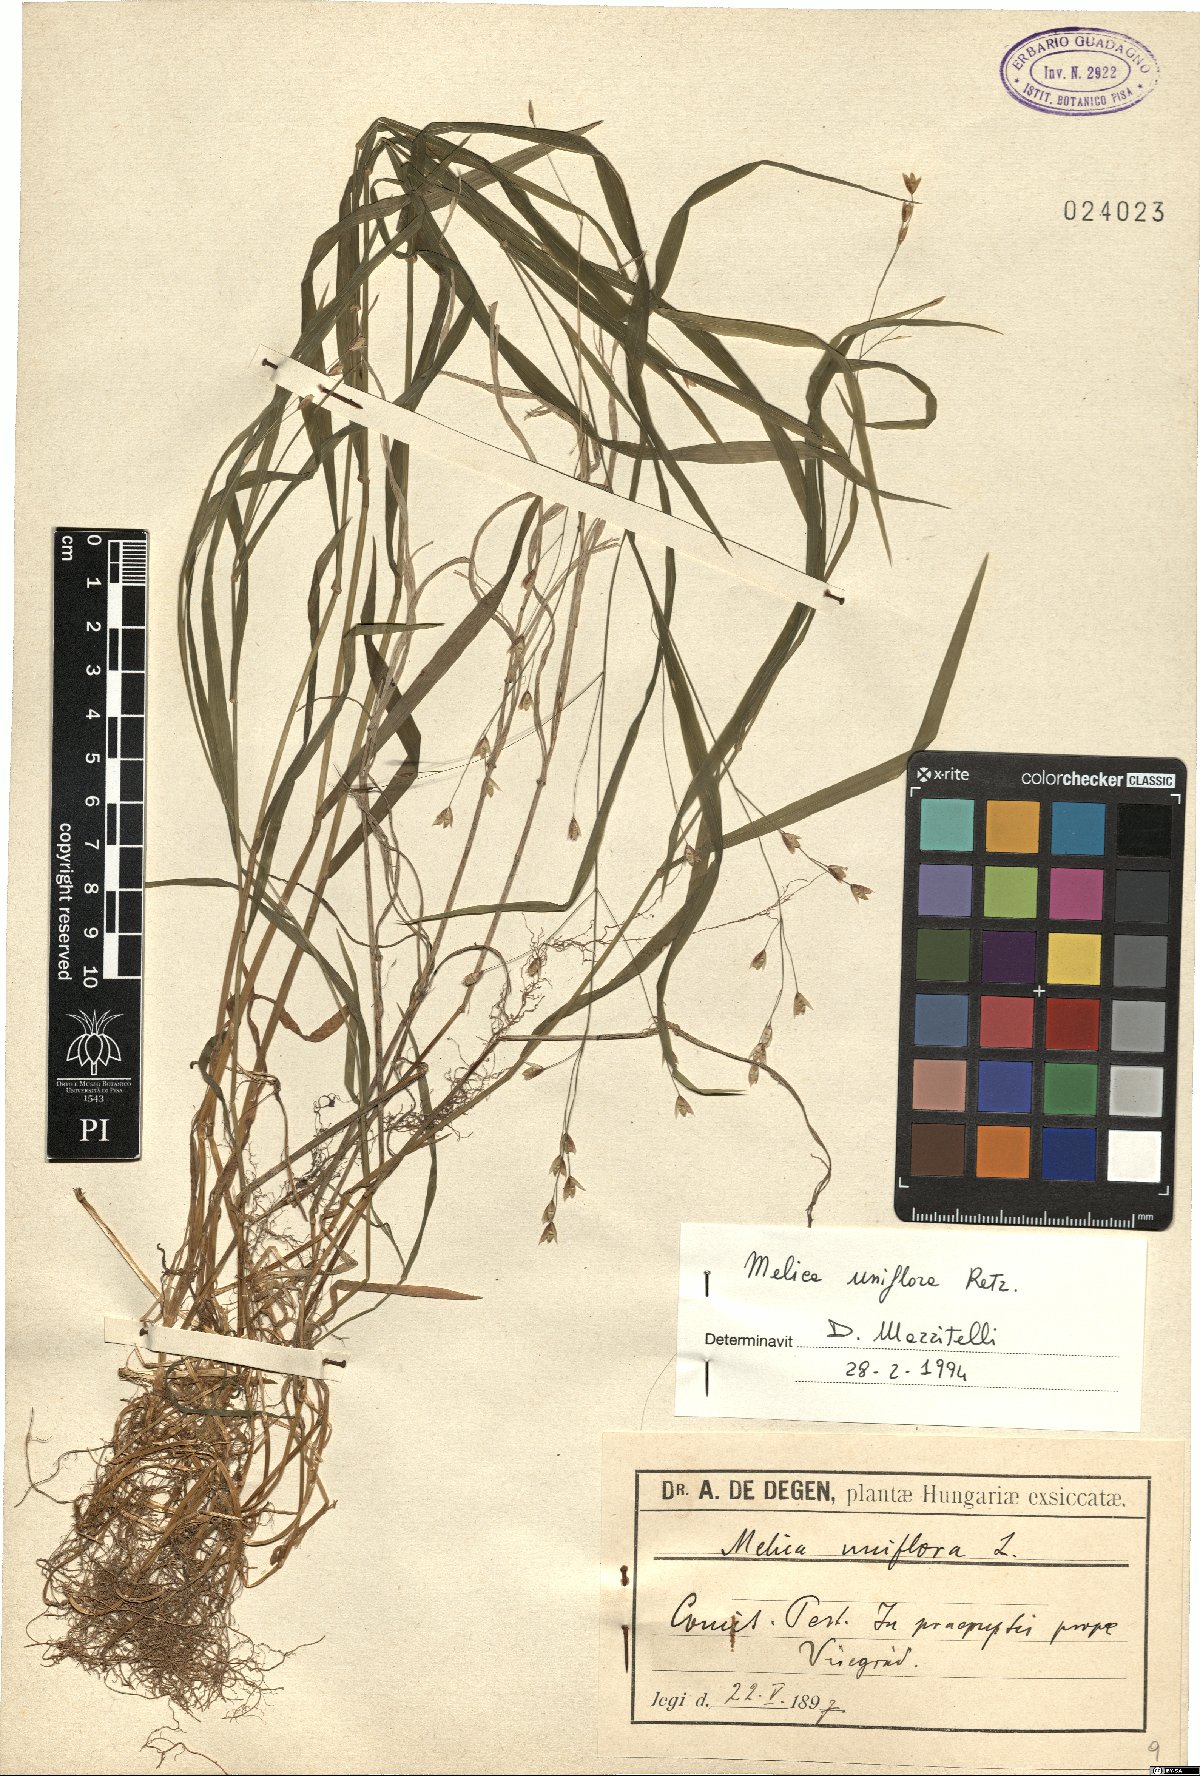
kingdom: Plantae
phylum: Tracheophyta
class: Liliopsida
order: Poales
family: Poaceae
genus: Melica
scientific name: Melica uniflora
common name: Wood melick
